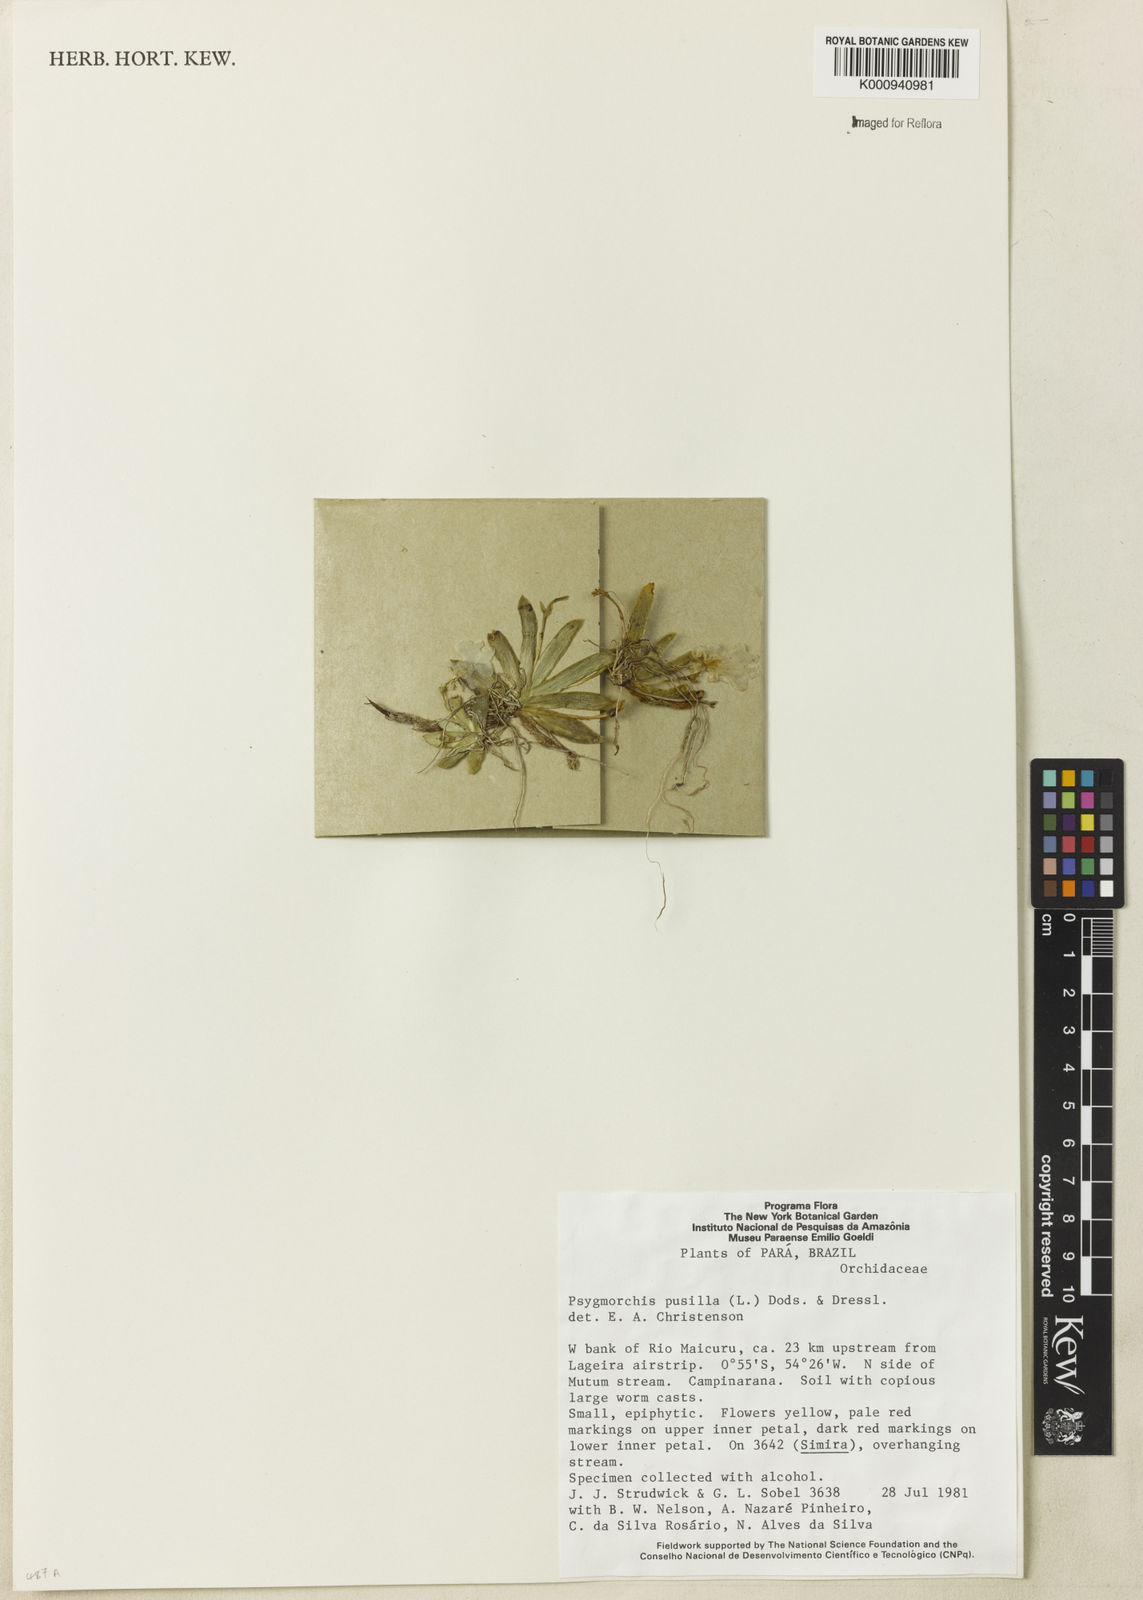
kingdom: Plantae
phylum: Tracheophyta
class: Liliopsida
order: Asparagales
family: Orchidaceae
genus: Erycina
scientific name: Erycina pusilla
